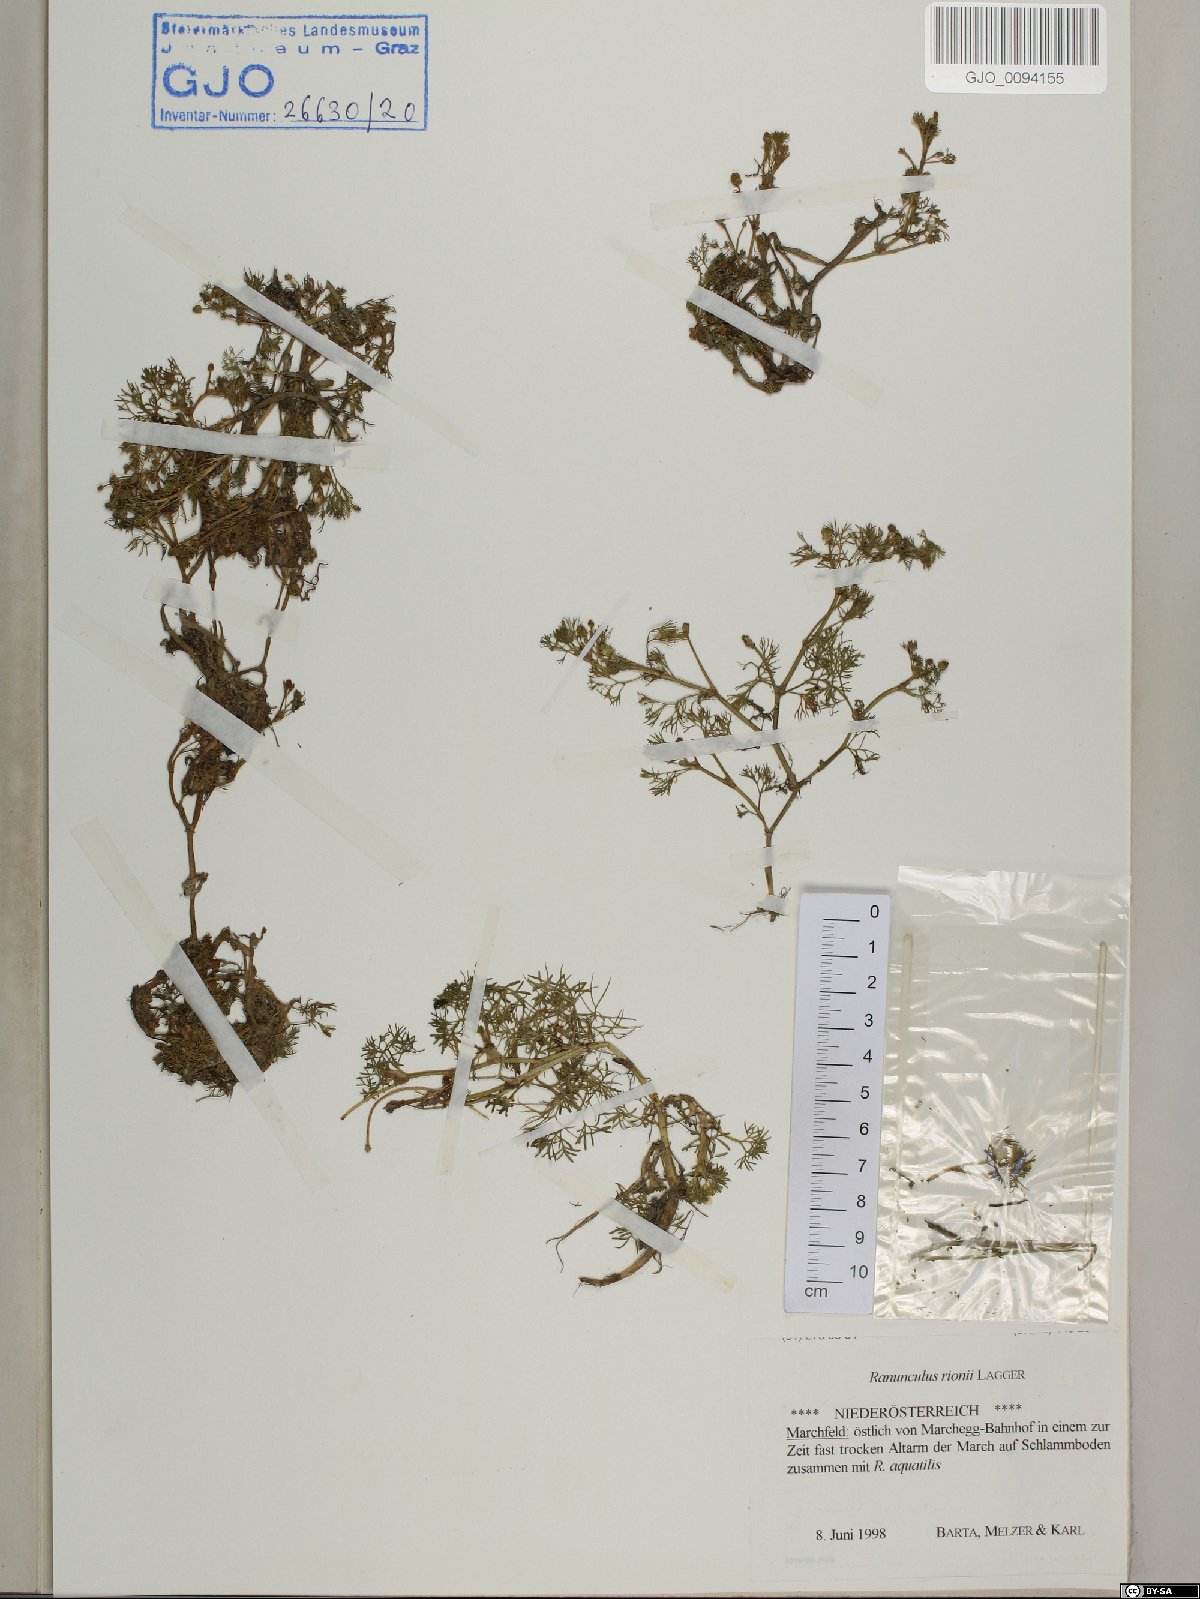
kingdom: Plantae
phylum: Tracheophyta
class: Magnoliopsida
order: Ranunculales
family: Ranunculaceae
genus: Ranunculus
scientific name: Ranunculus rionii
